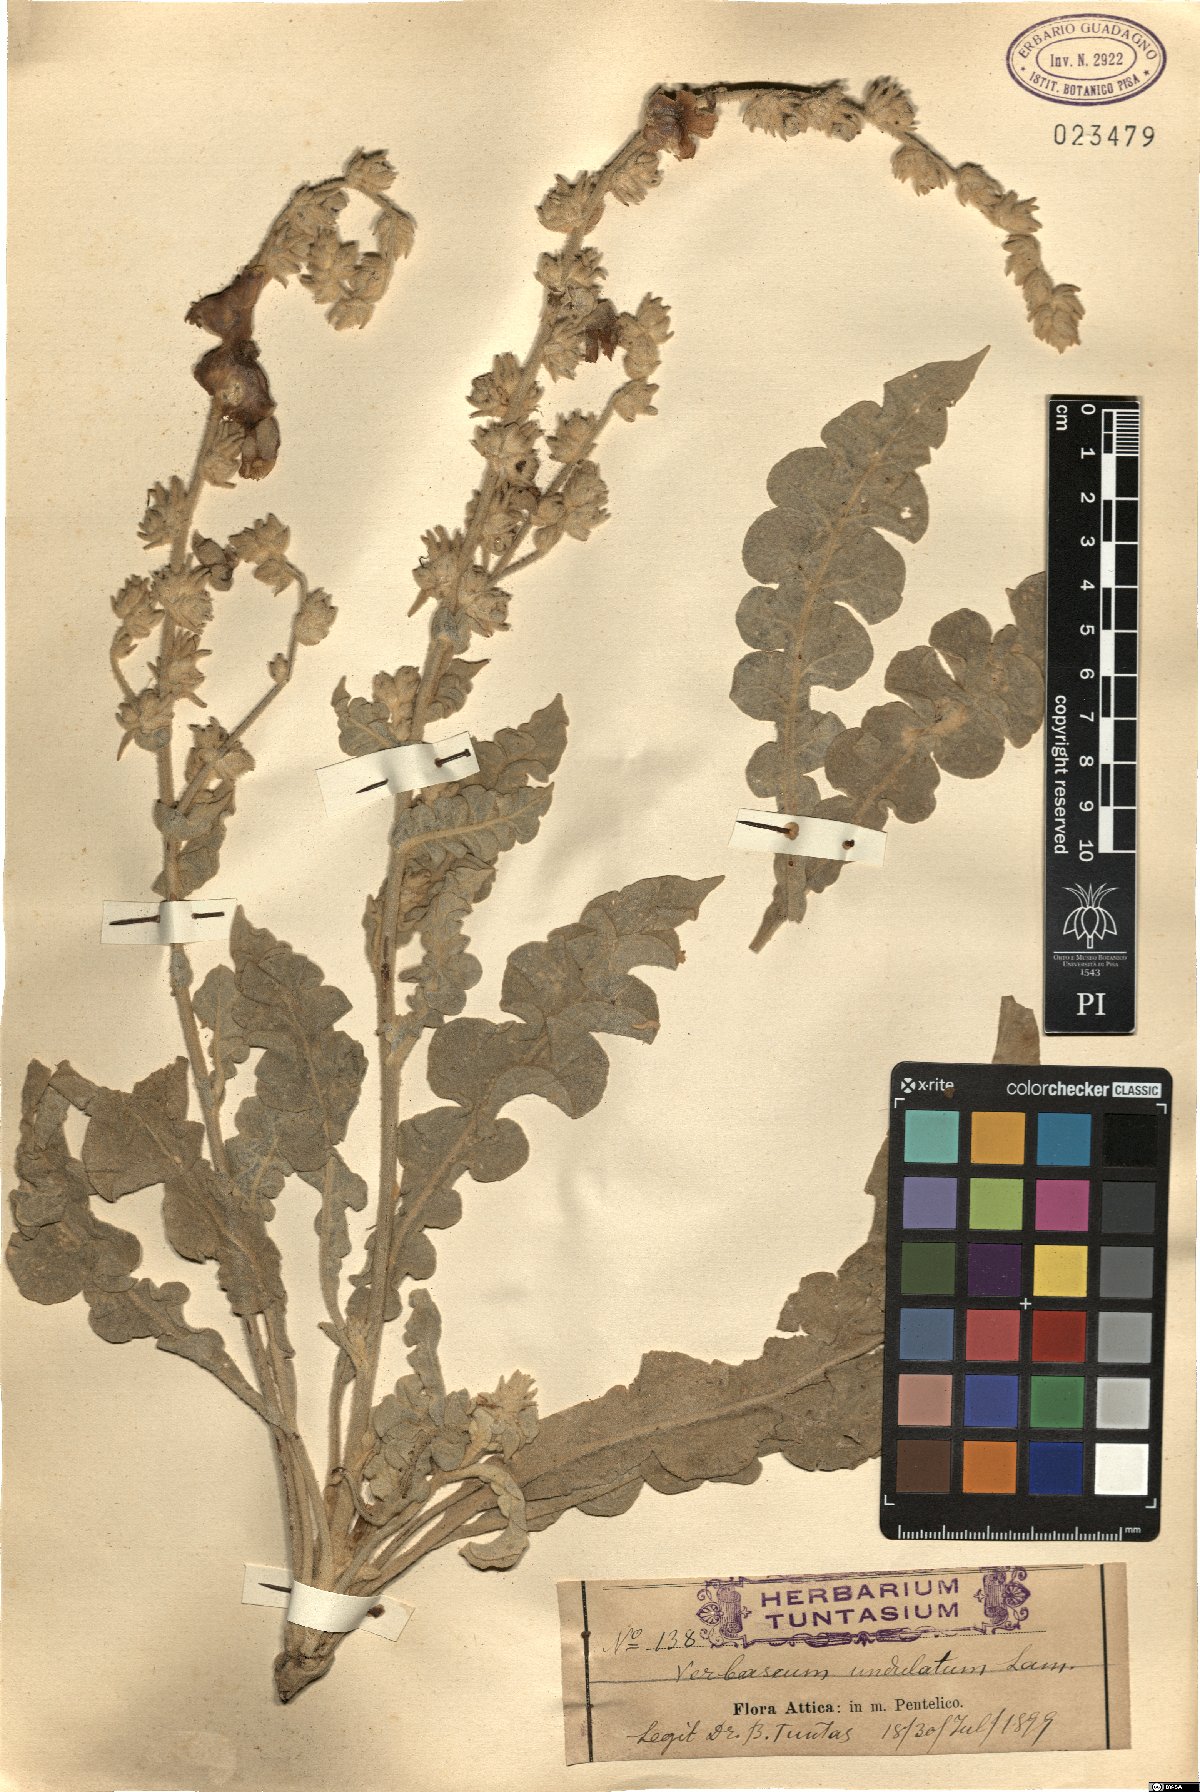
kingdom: Plantae
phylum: Tracheophyta
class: Magnoliopsida
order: Lamiales
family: Scrophulariaceae
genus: Verbascum
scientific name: Verbascum undulatum
